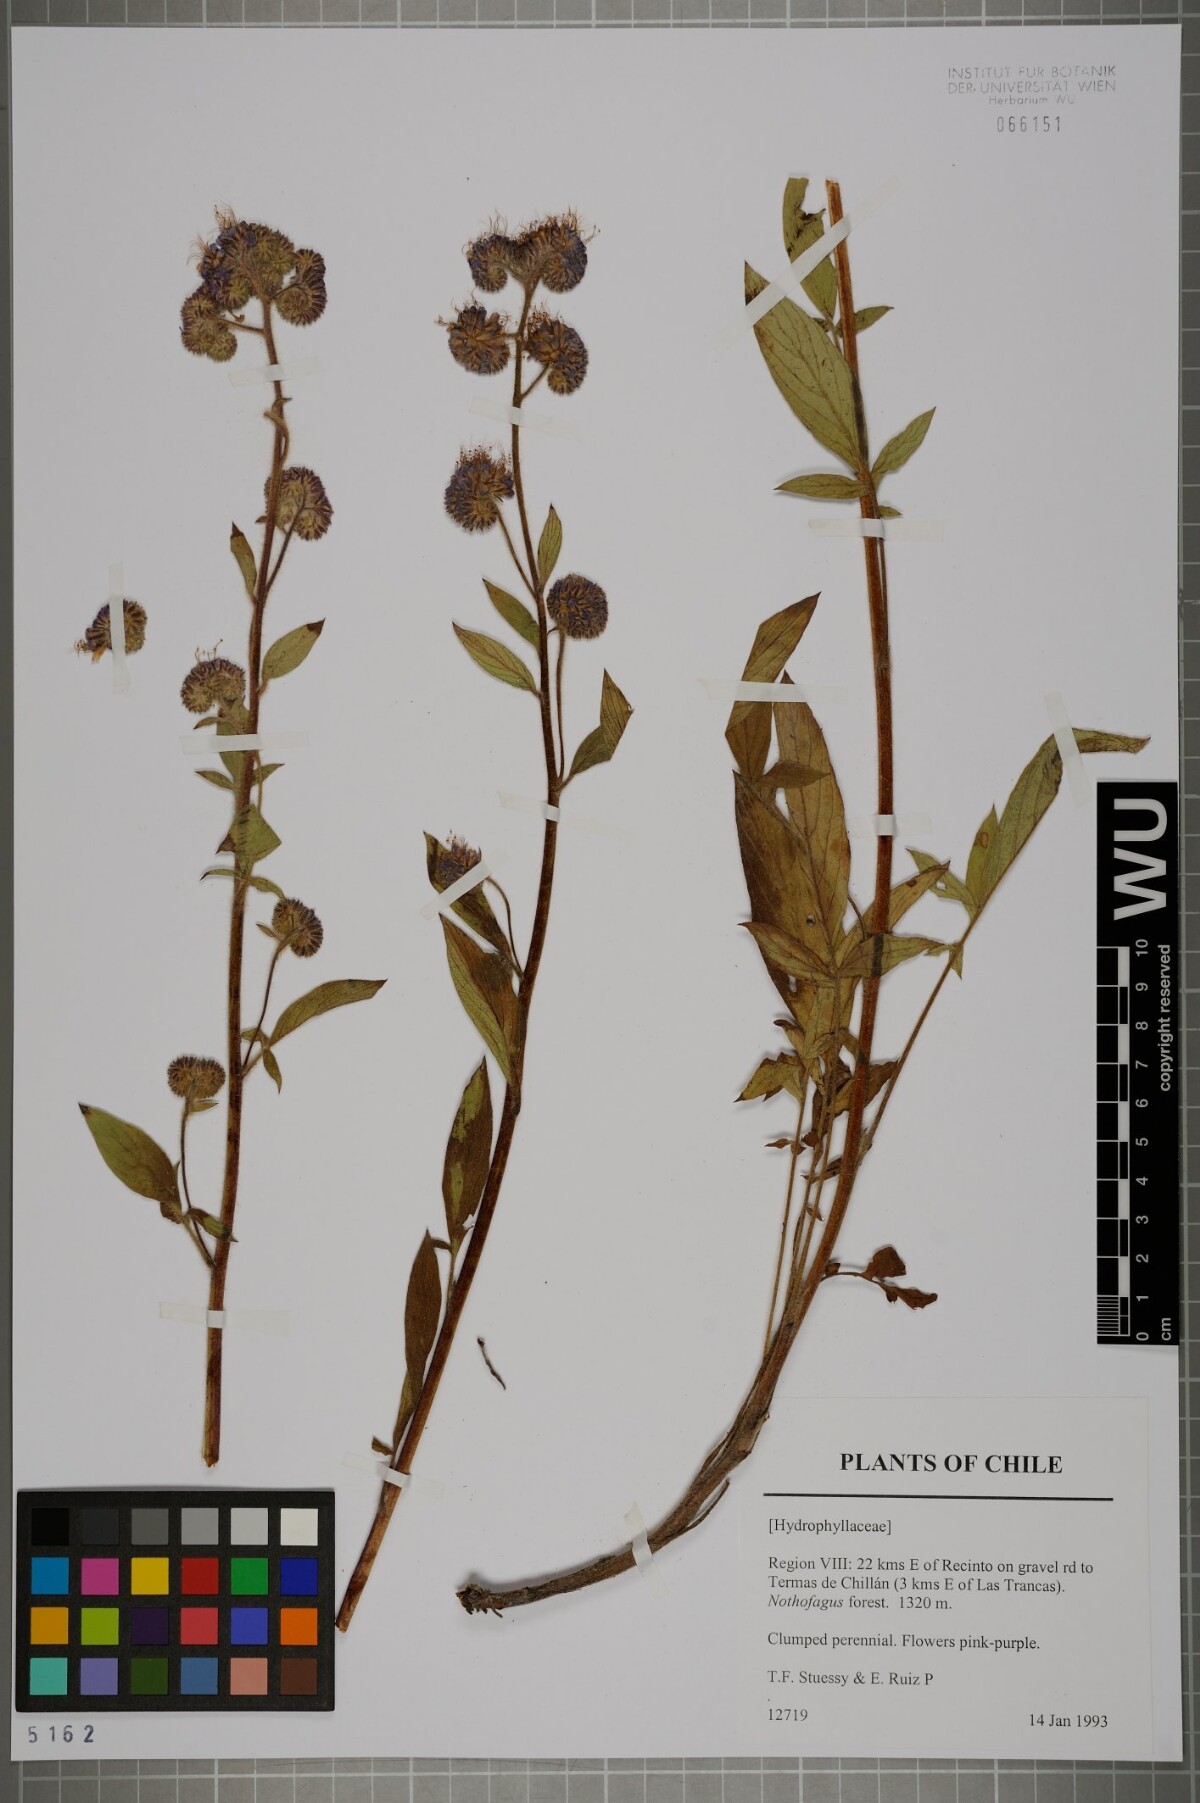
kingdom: Plantae
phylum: Tracheophyta
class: Magnoliopsida
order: Boraginales
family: Hydrophyllaceae
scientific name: Hydrophyllaceae
